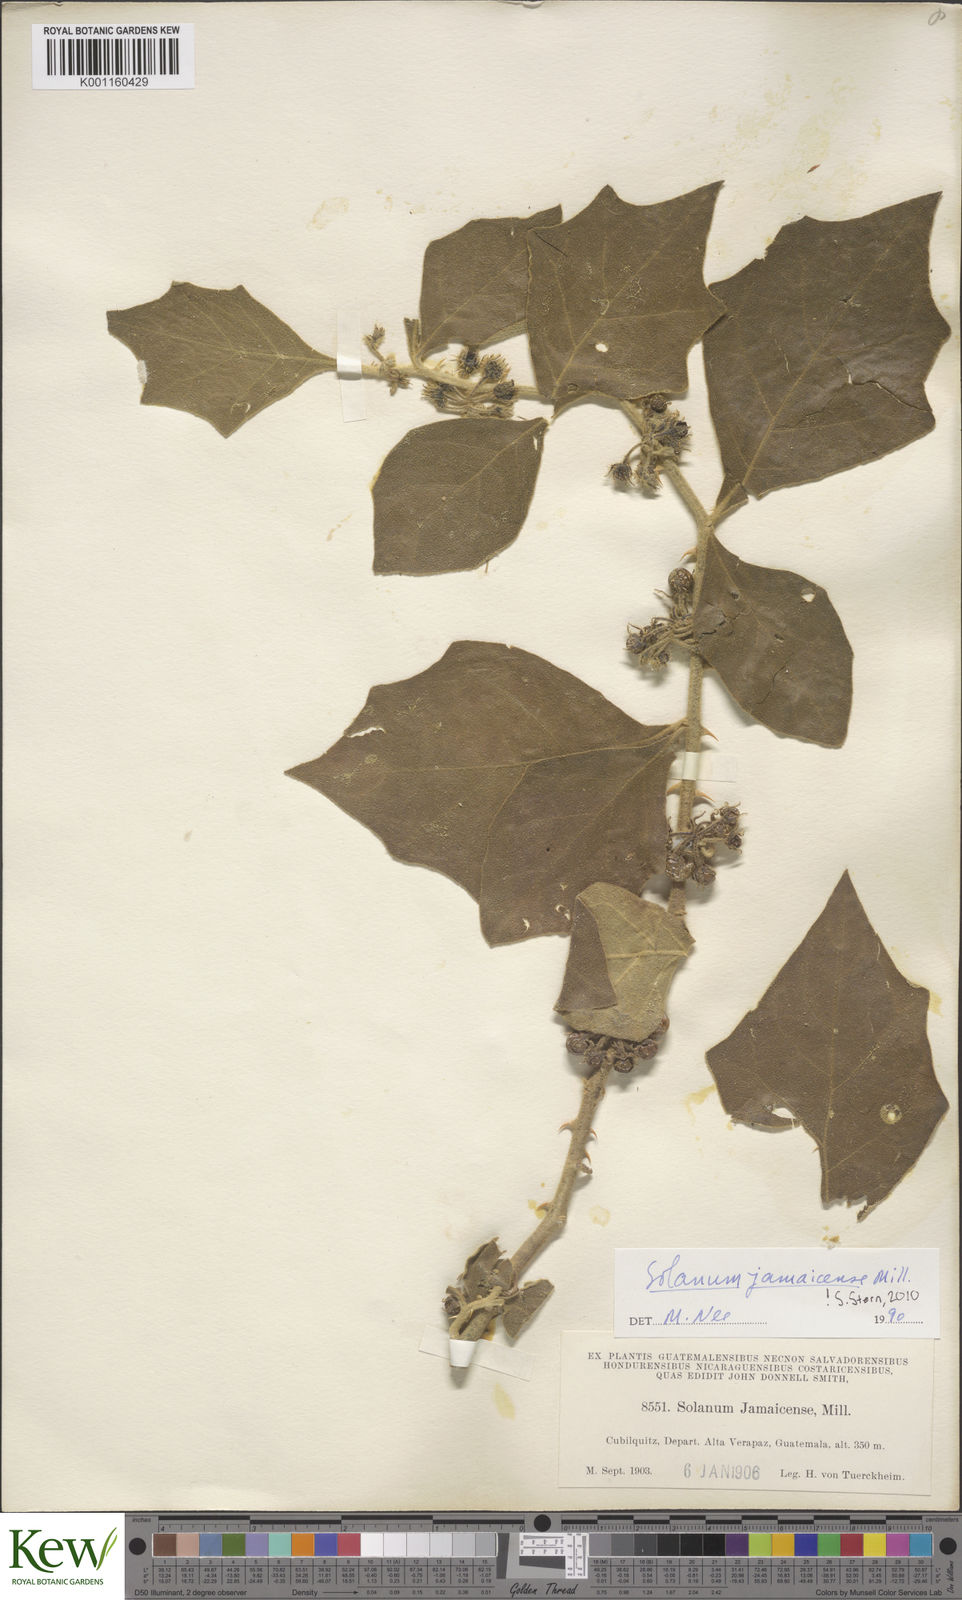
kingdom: Plantae
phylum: Tracheophyta
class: Magnoliopsida
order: Solanales
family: Solanaceae
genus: Solanum
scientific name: Solanum jamaicense
